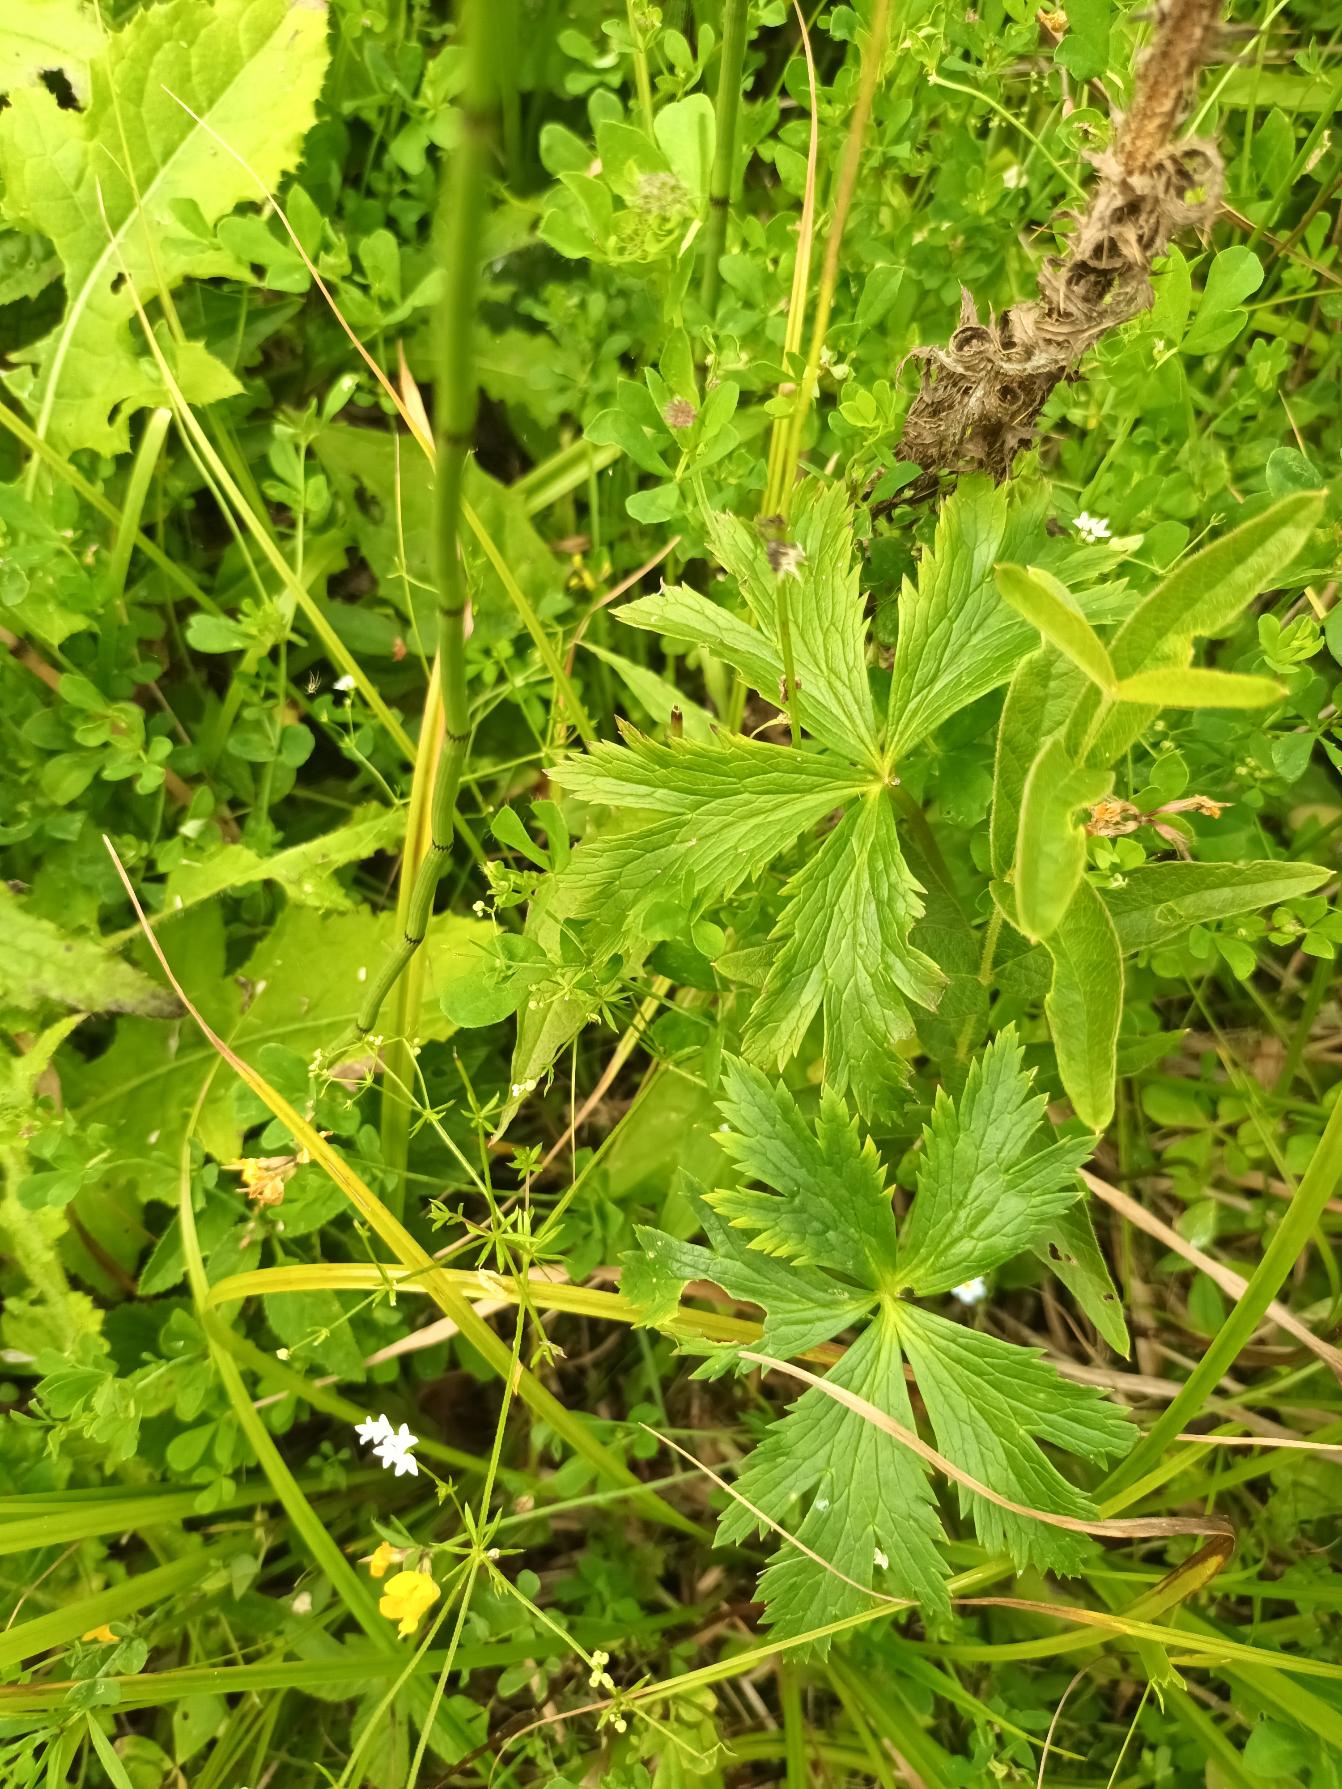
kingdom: Plantae
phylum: Tracheophyta
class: Magnoliopsida
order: Ranunculales
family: Ranunculaceae
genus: Trollius
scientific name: Trollius europaeus
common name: Engblomme
